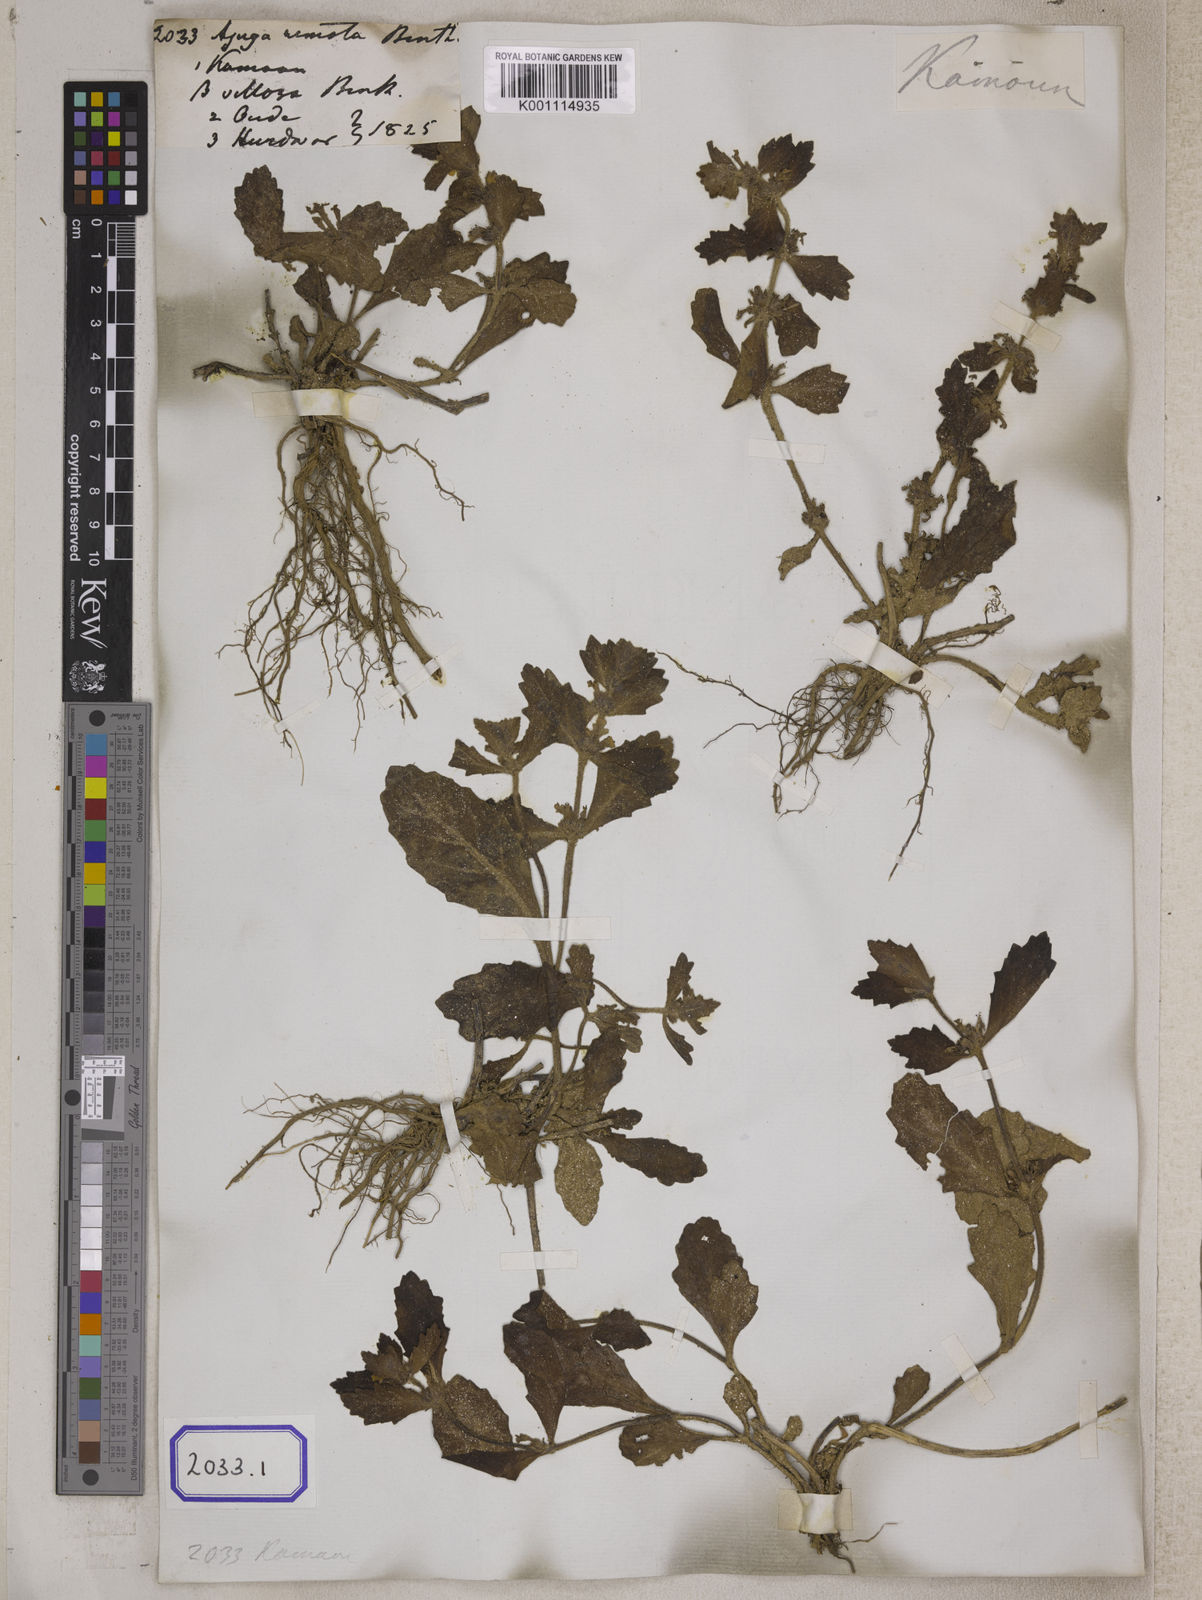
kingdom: Plantae
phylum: Tracheophyta
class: Magnoliopsida
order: Lamiales
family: Lamiaceae
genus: Ajuga
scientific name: Ajuga integrifolia
